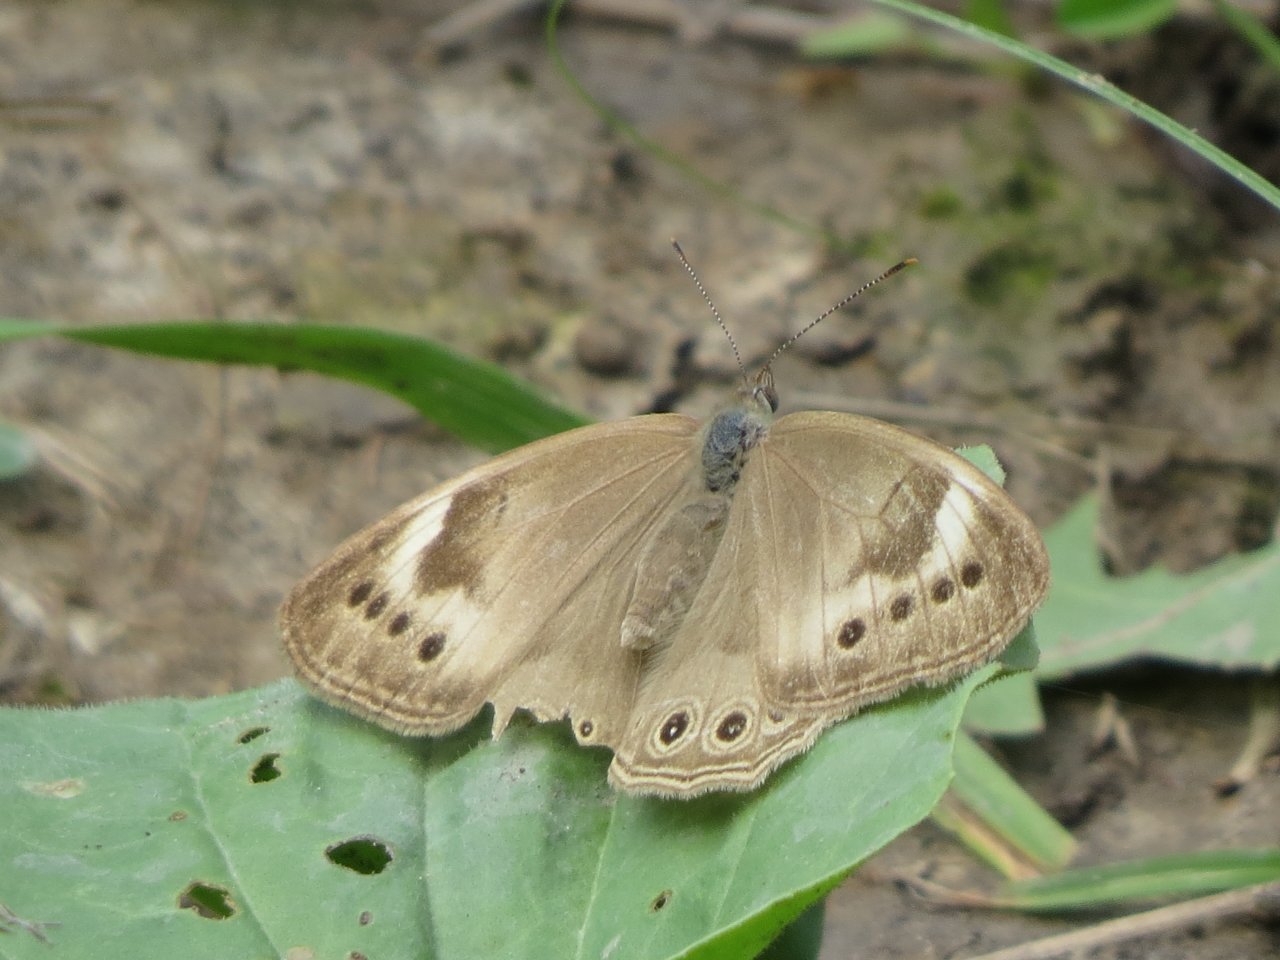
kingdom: Animalia
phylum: Arthropoda
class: Insecta
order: Lepidoptera
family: Nymphalidae
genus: Lethe
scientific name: Lethe
